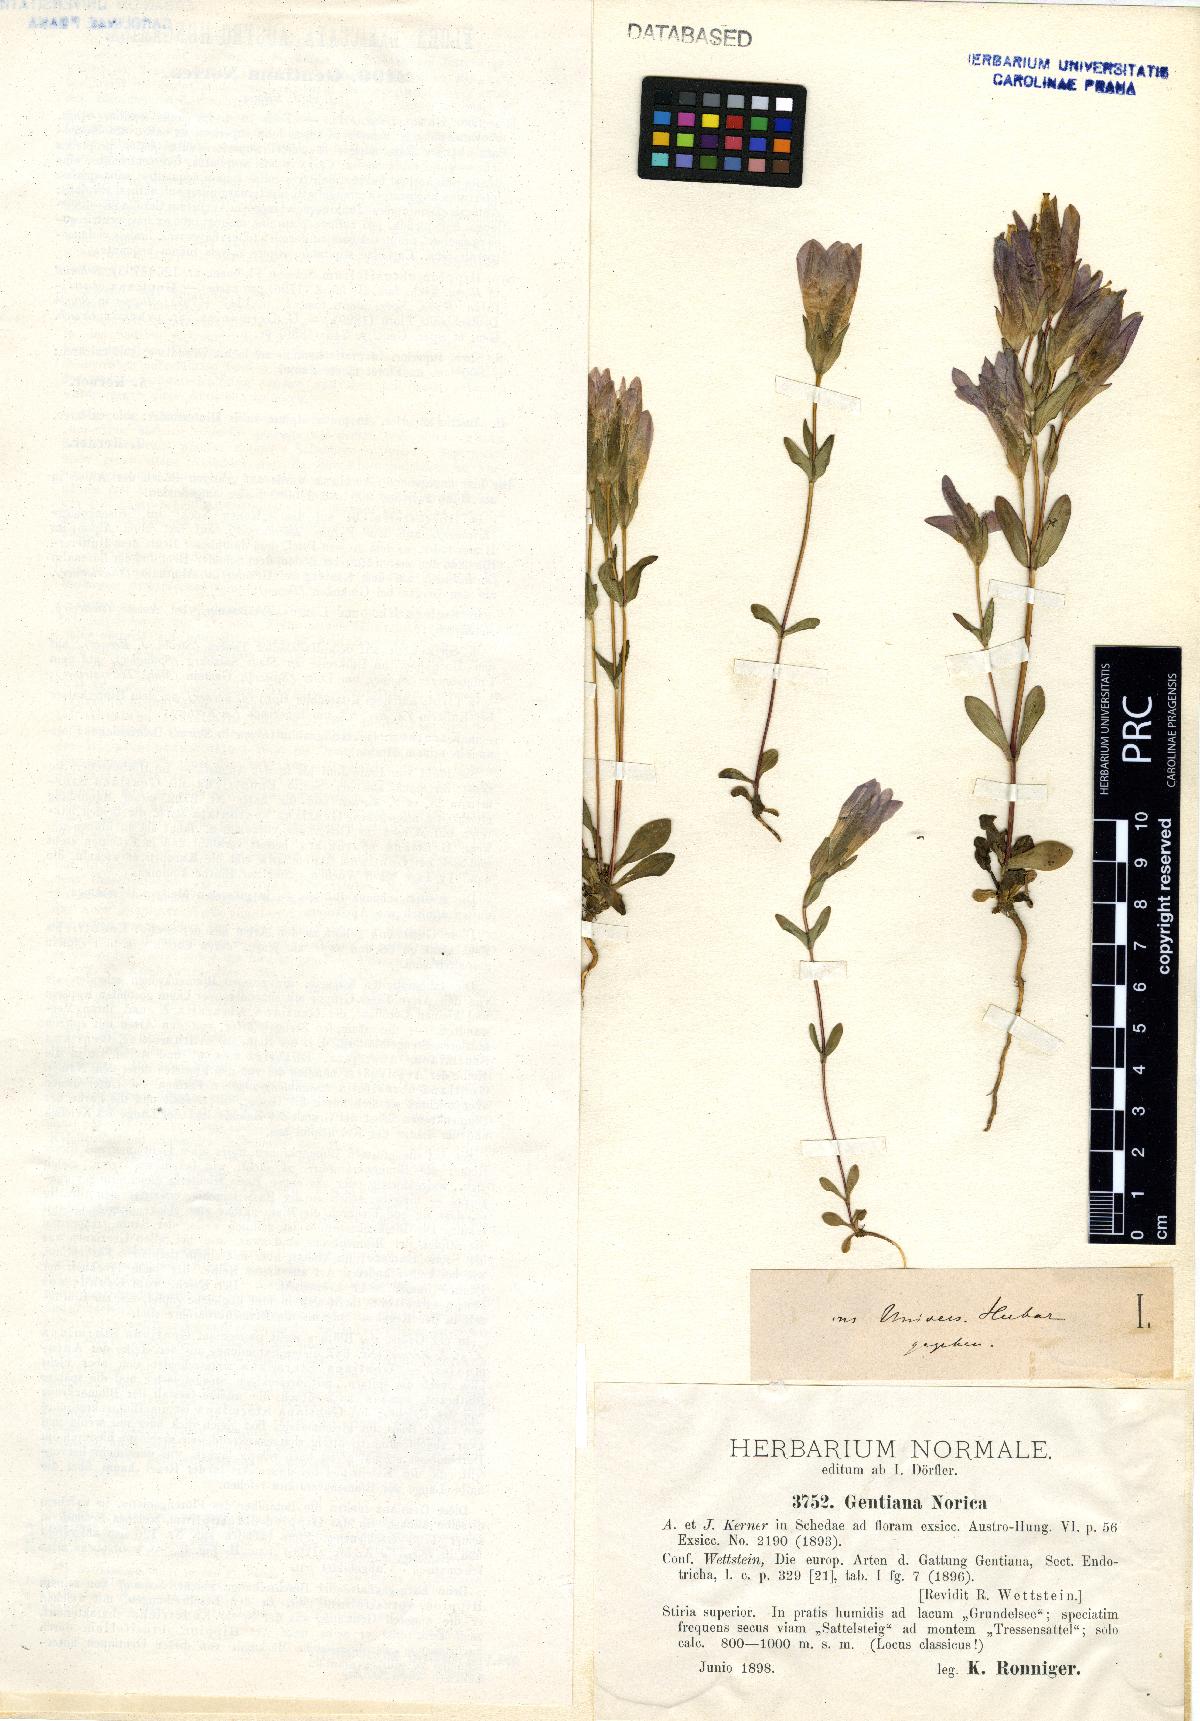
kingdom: Plantae
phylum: Tracheophyta
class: Magnoliopsida
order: Gentianales
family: Gentianaceae
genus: Gentianella
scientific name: Gentianella obtusifolia
